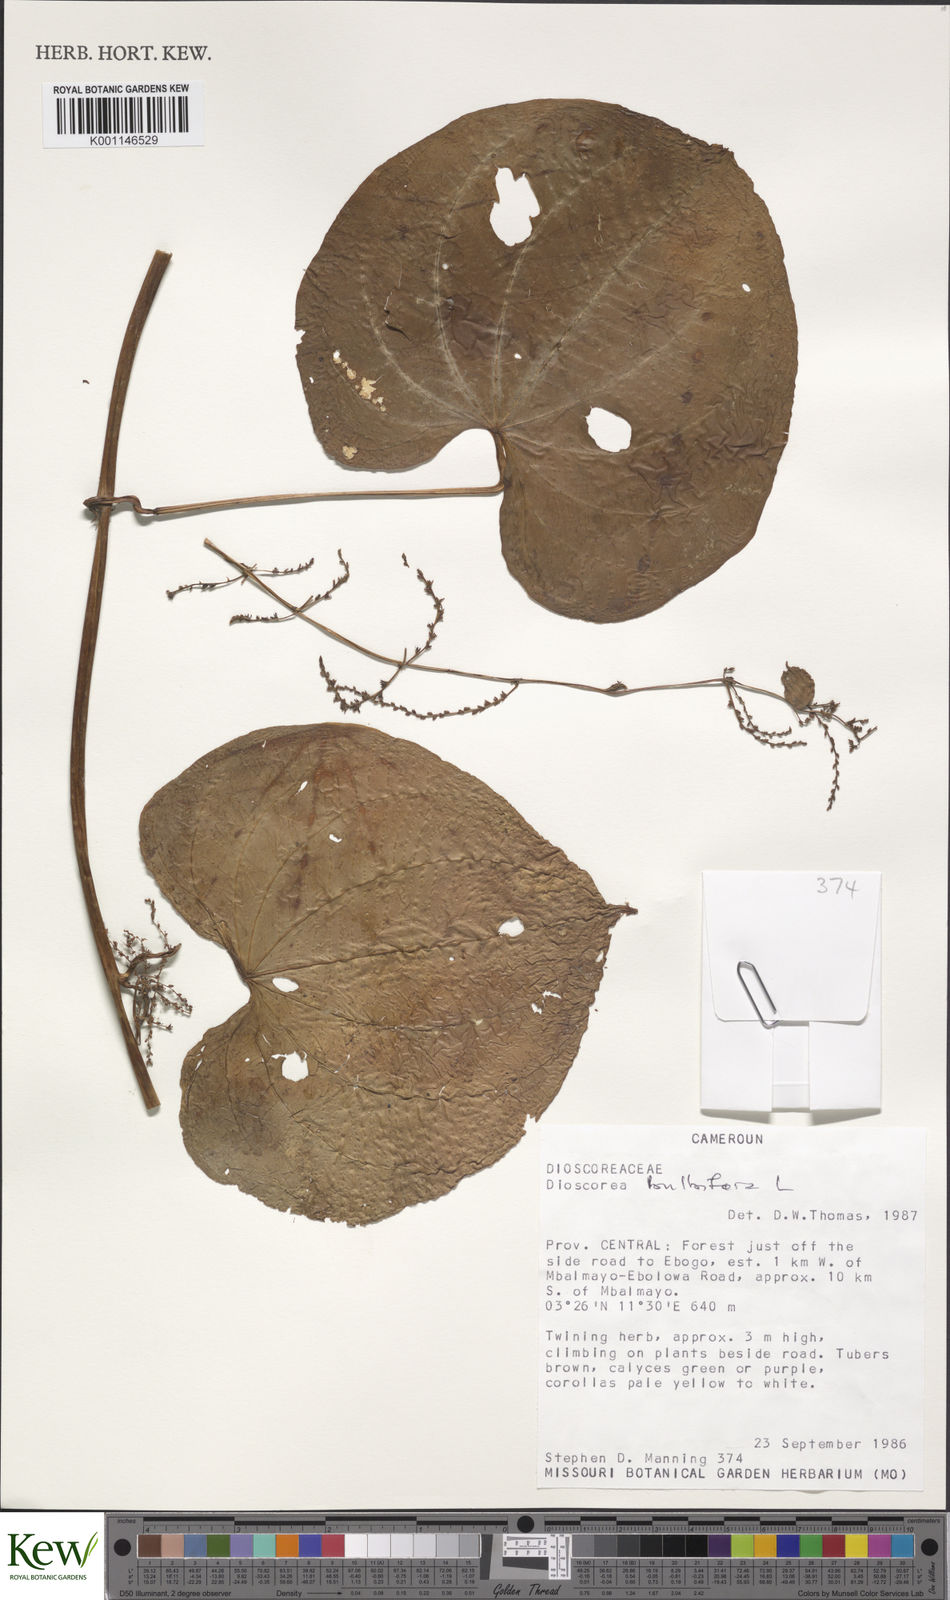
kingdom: Plantae
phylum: Tracheophyta
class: Liliopsida
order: Dioscoreales
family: Dioscoreaceae
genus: Dioscorea
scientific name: Dioscorea
